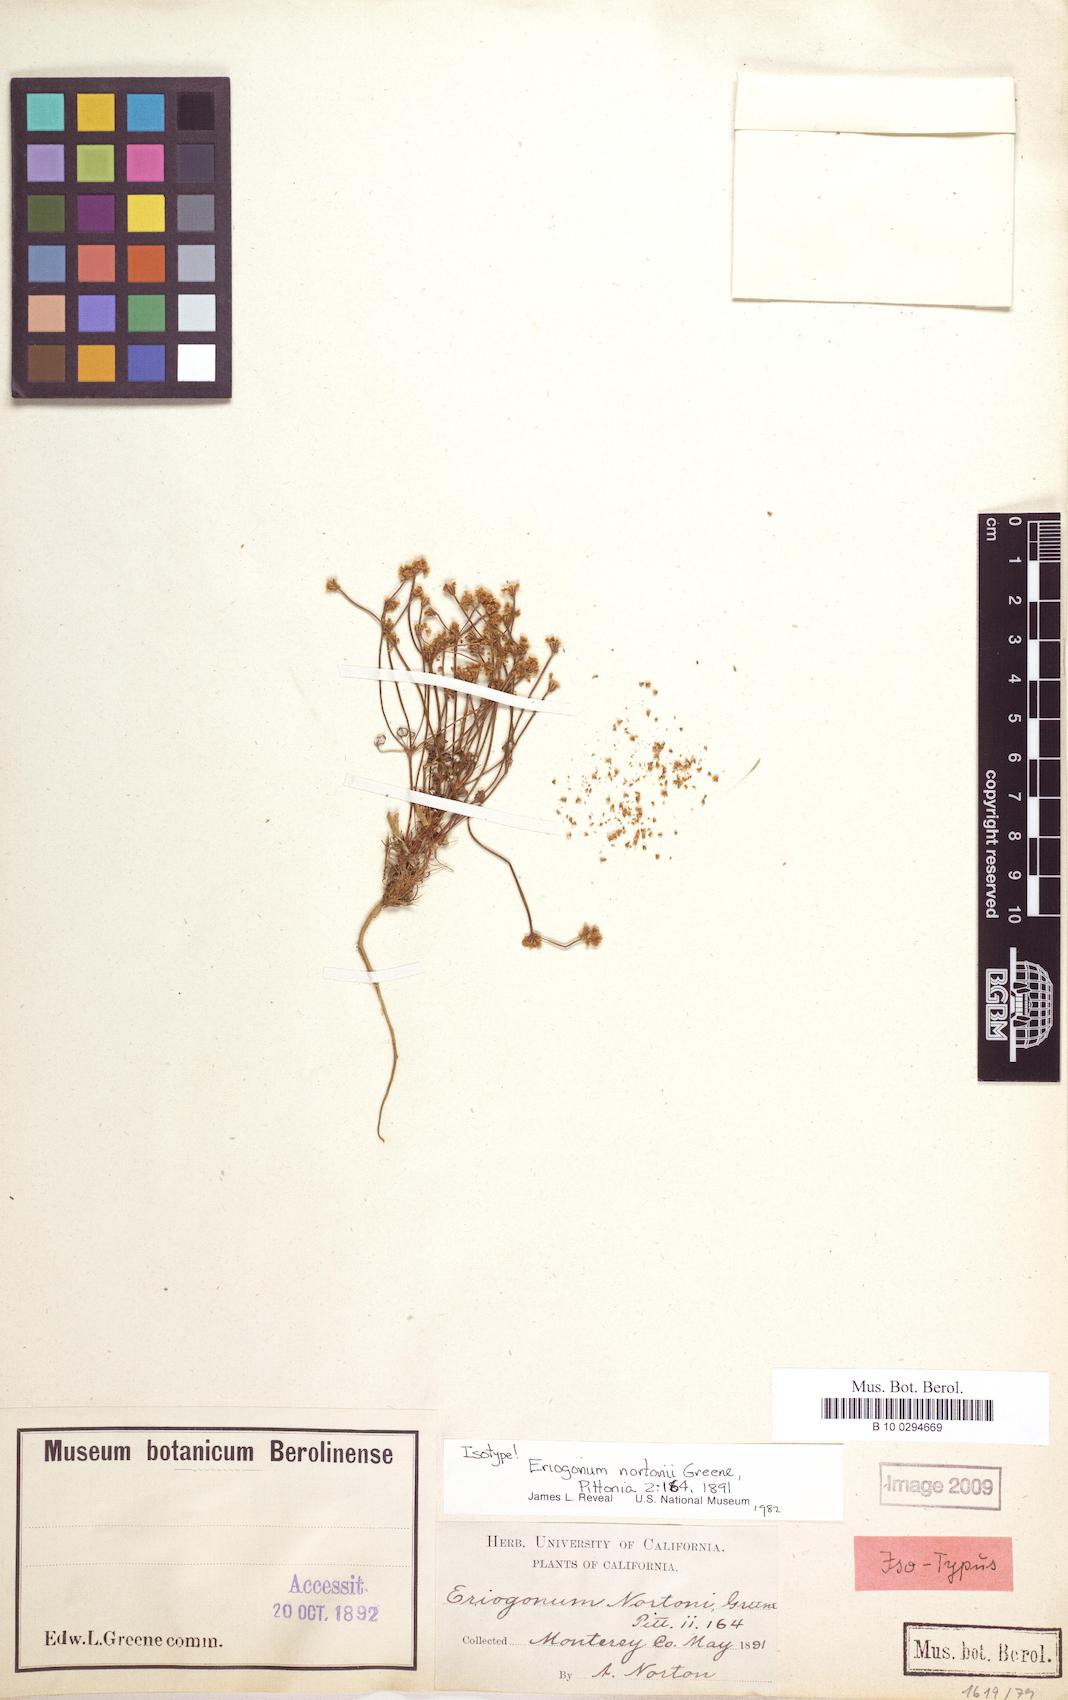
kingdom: Plantae
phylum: Tracheophyta
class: Magnoliopsida
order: Caryophyllales
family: Polygonaceae
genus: Eriogonum
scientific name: Eriogonum nortonii
